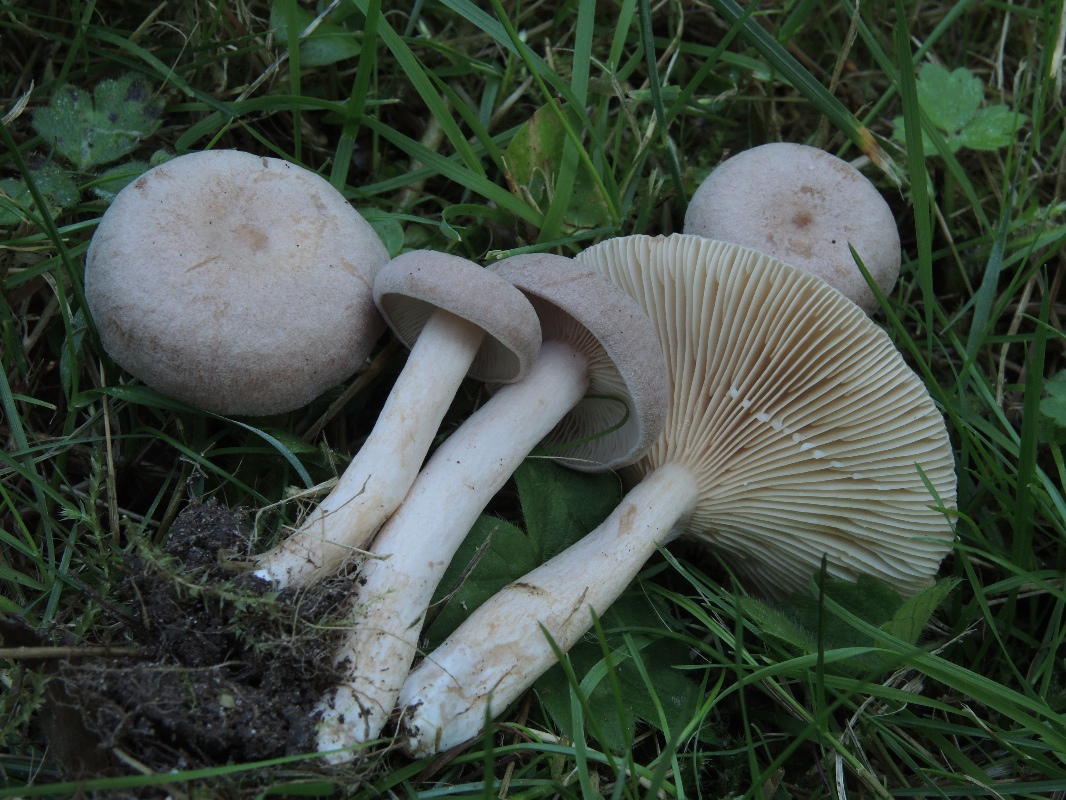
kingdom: Fungi
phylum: Basidiomycota
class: Agaricomycetes
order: Russulales
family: Russulaceae
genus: Lactarius
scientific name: Lactarius glyciosmus
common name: kokos-mælkehat
